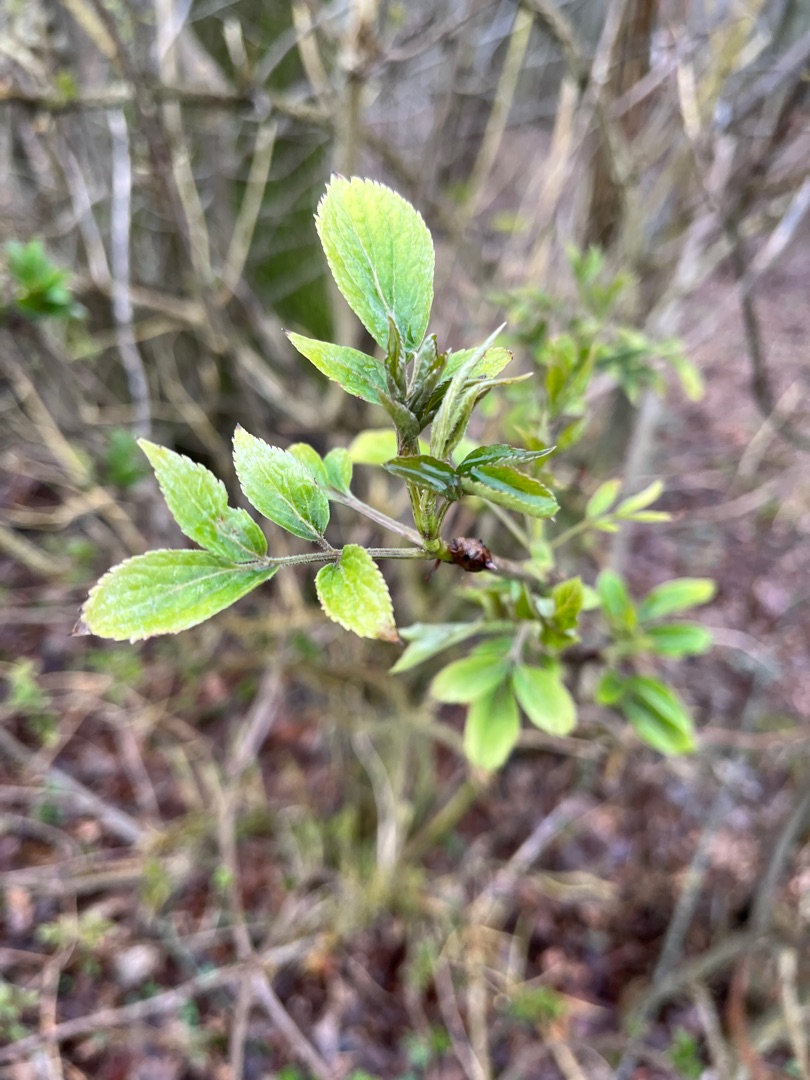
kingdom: Plantae
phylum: Tracheophyta
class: Magnoliopsida
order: Dipsacales
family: Viburnaceae
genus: Sambucus
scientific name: Sambucus nigra
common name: Almindelig hyld
